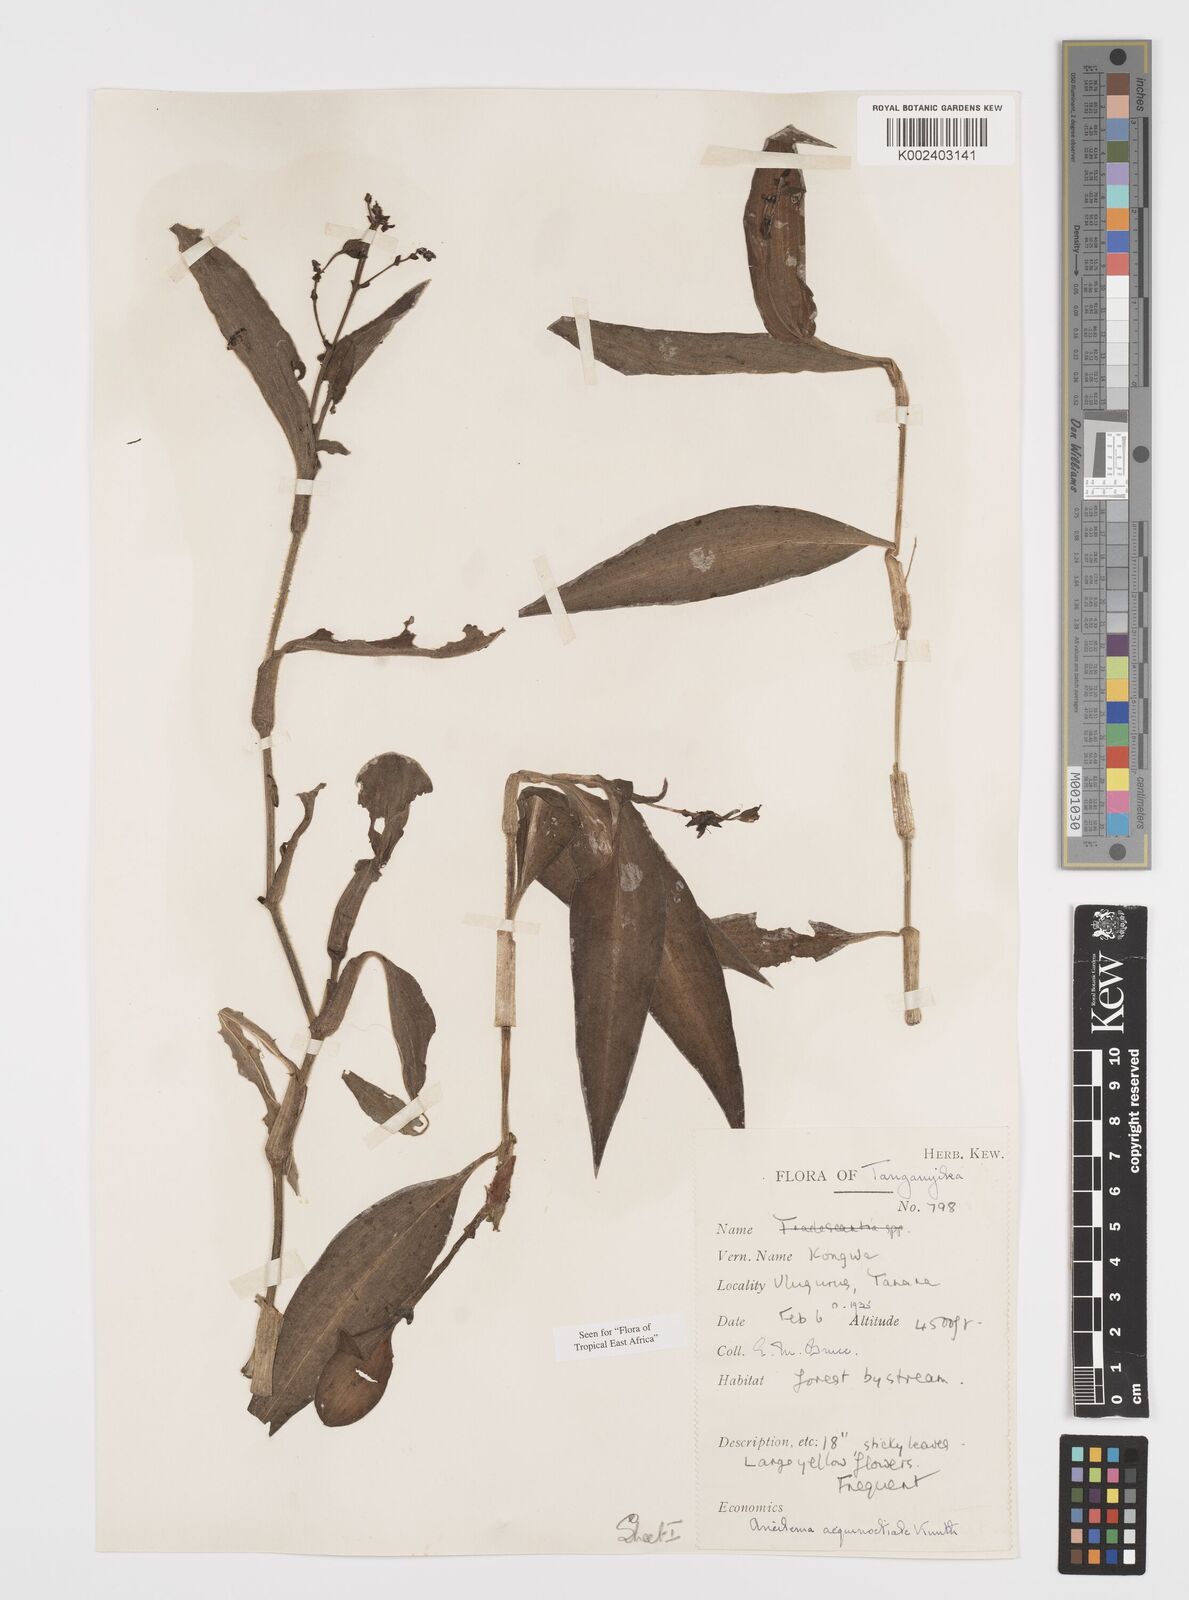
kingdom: Plantae
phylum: Tracheophyta
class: Liliopsida
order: Commelinales
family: Commelinaceae
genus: Aneilema
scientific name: Aneilema aequinoctiale
